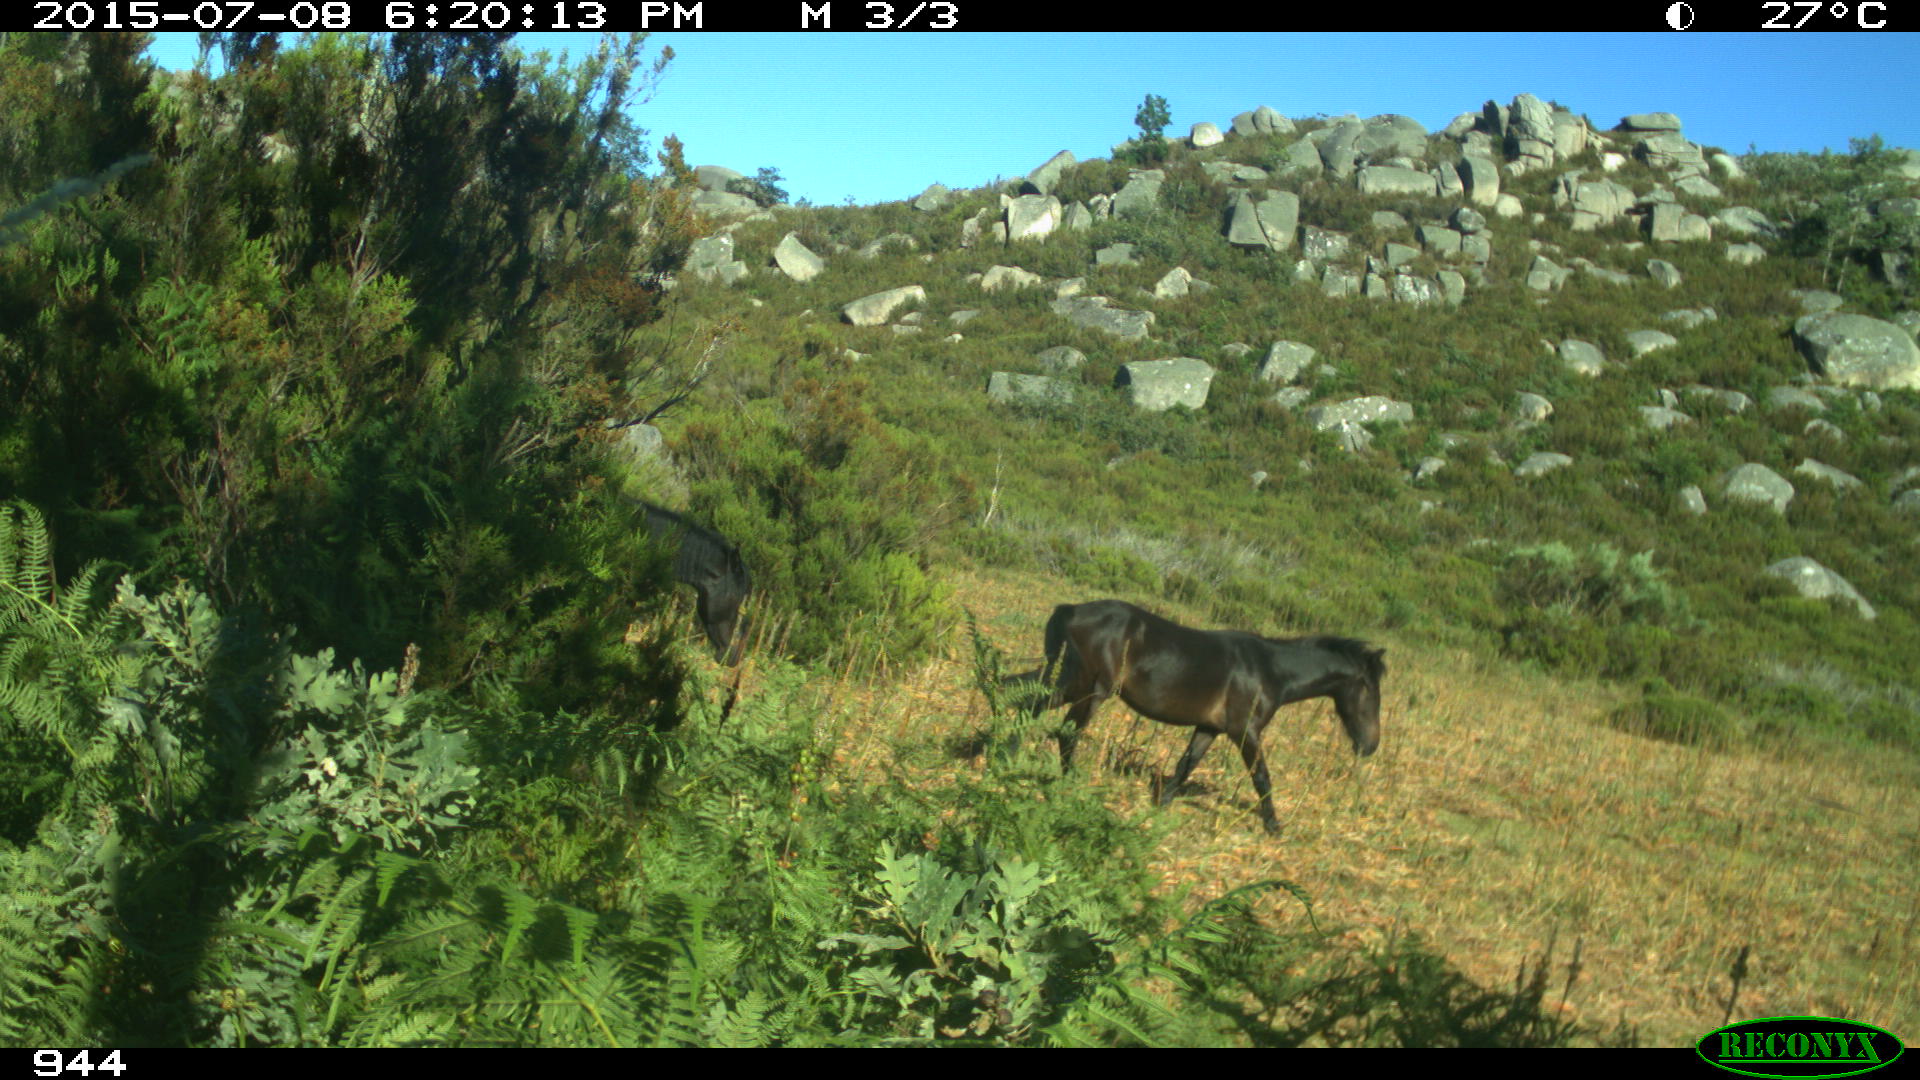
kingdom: Animalia
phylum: Chordata
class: Mammalia
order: Perissodactyla
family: Equidae
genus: Equus
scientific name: Equus caballus
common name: Horse
